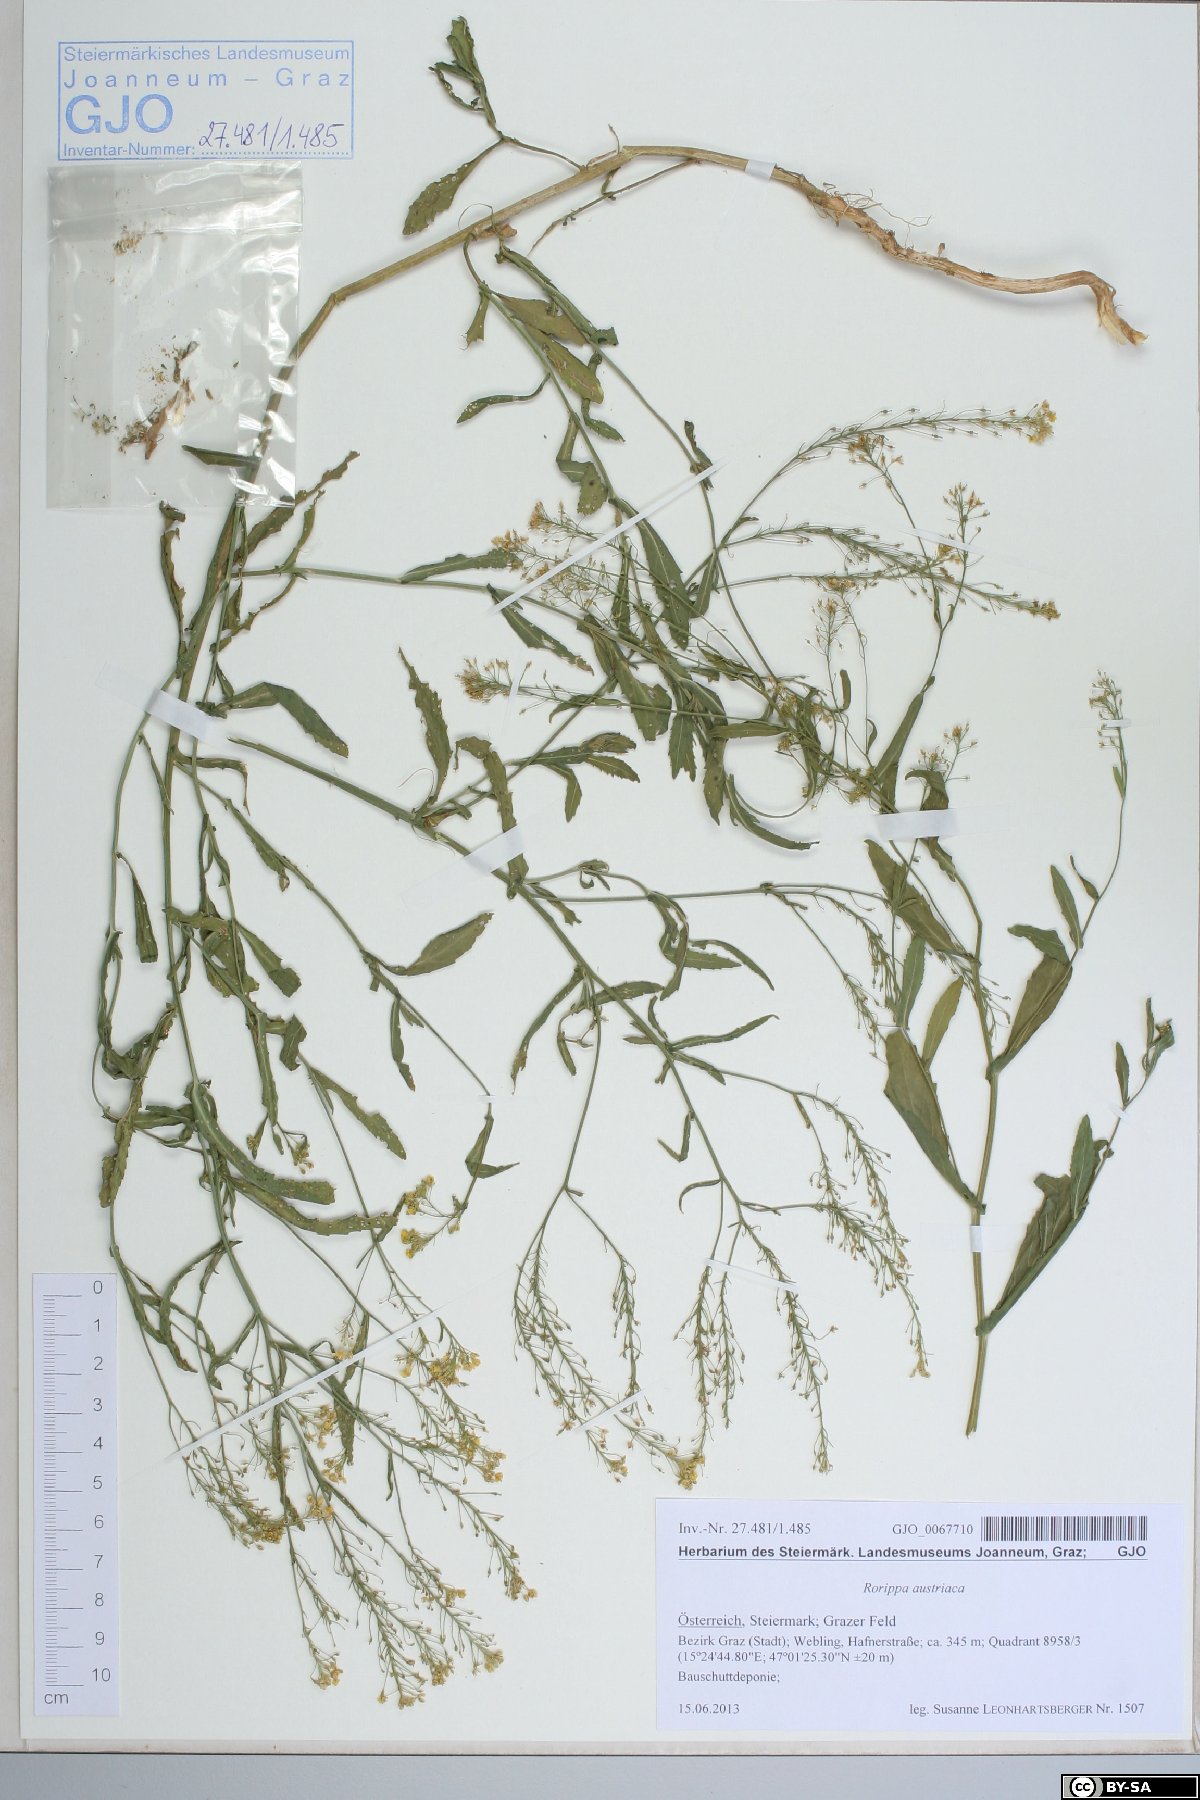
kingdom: Plantae
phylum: Tracheophyta
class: Magnoliopsida
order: Brassicales
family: Brassicaceae
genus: Rorippa
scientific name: Rorippa austriaca
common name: Austrian yellow-cress
